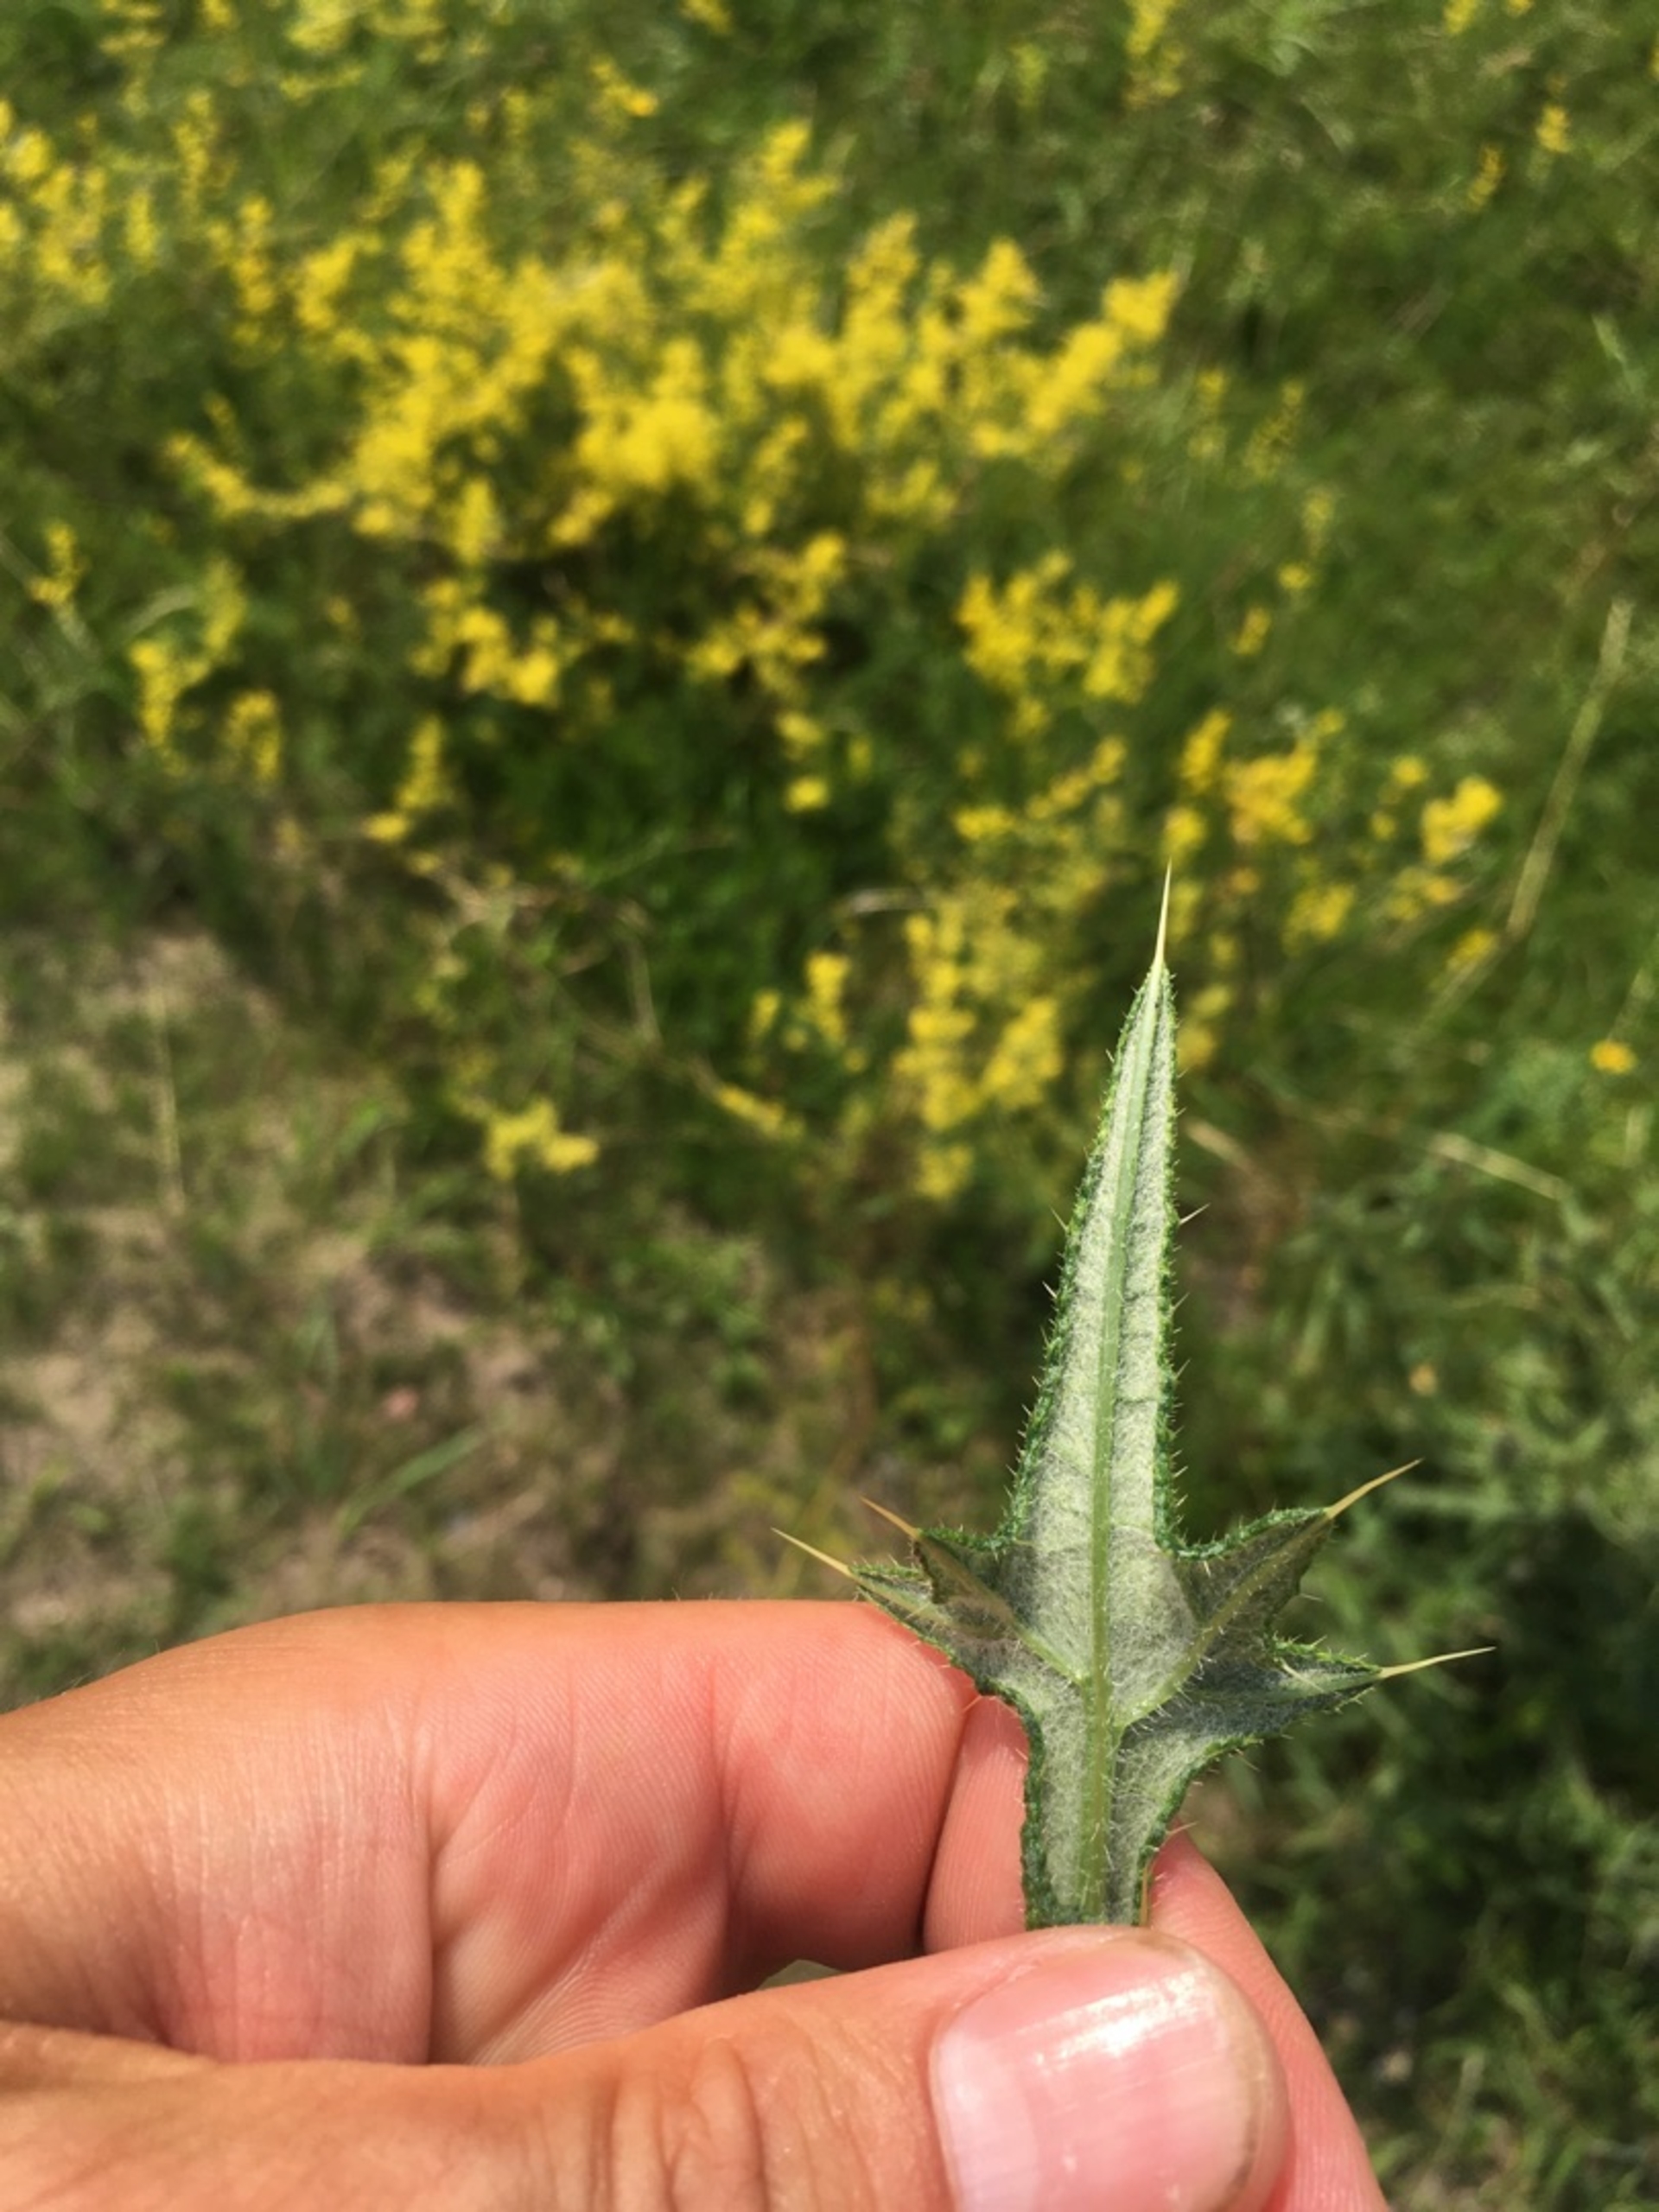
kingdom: Plantae
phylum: Tracheophyta
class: Magnoliopsida
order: Asterales
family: Asteraceae
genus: Cirsium
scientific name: Cirsium vulgare
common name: Horse-tidsel
